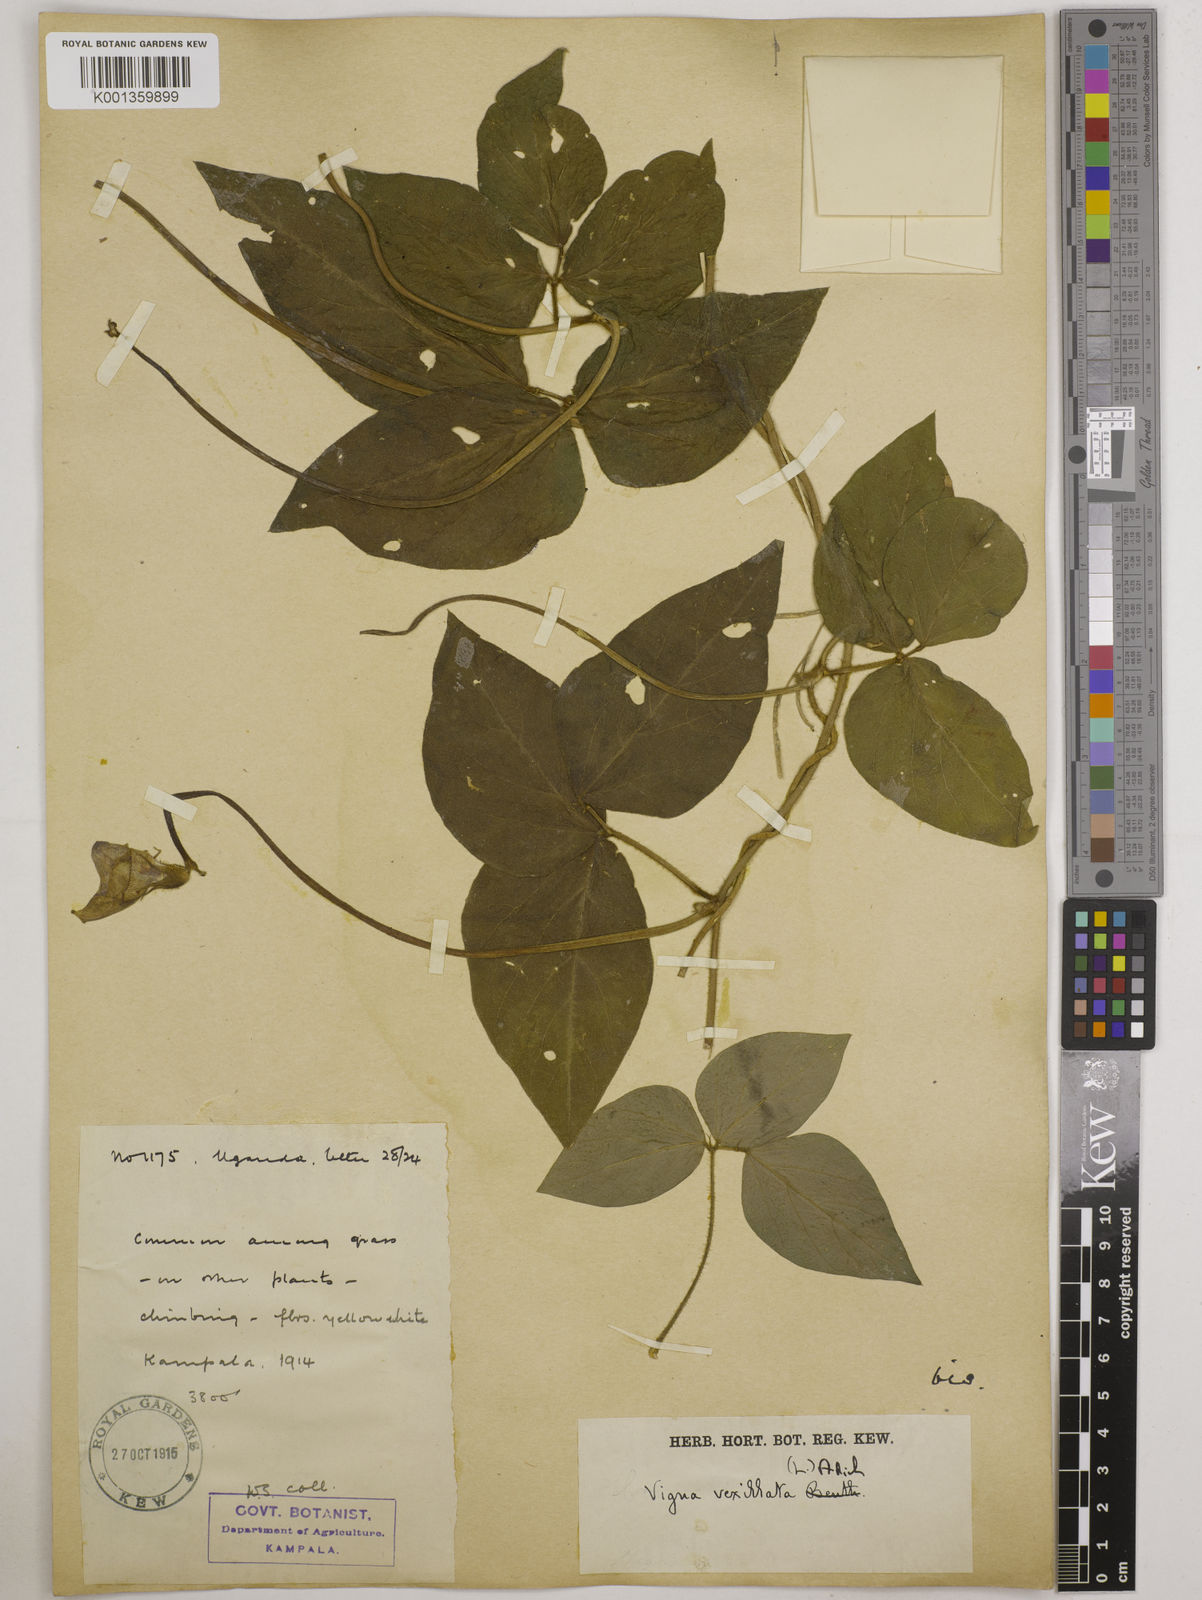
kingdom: Plantae
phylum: Tracheophyta
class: Magnoliopsida
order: Fabales
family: Fabaceae
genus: Vigna
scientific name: Vigna vexillata
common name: Zombi pea
